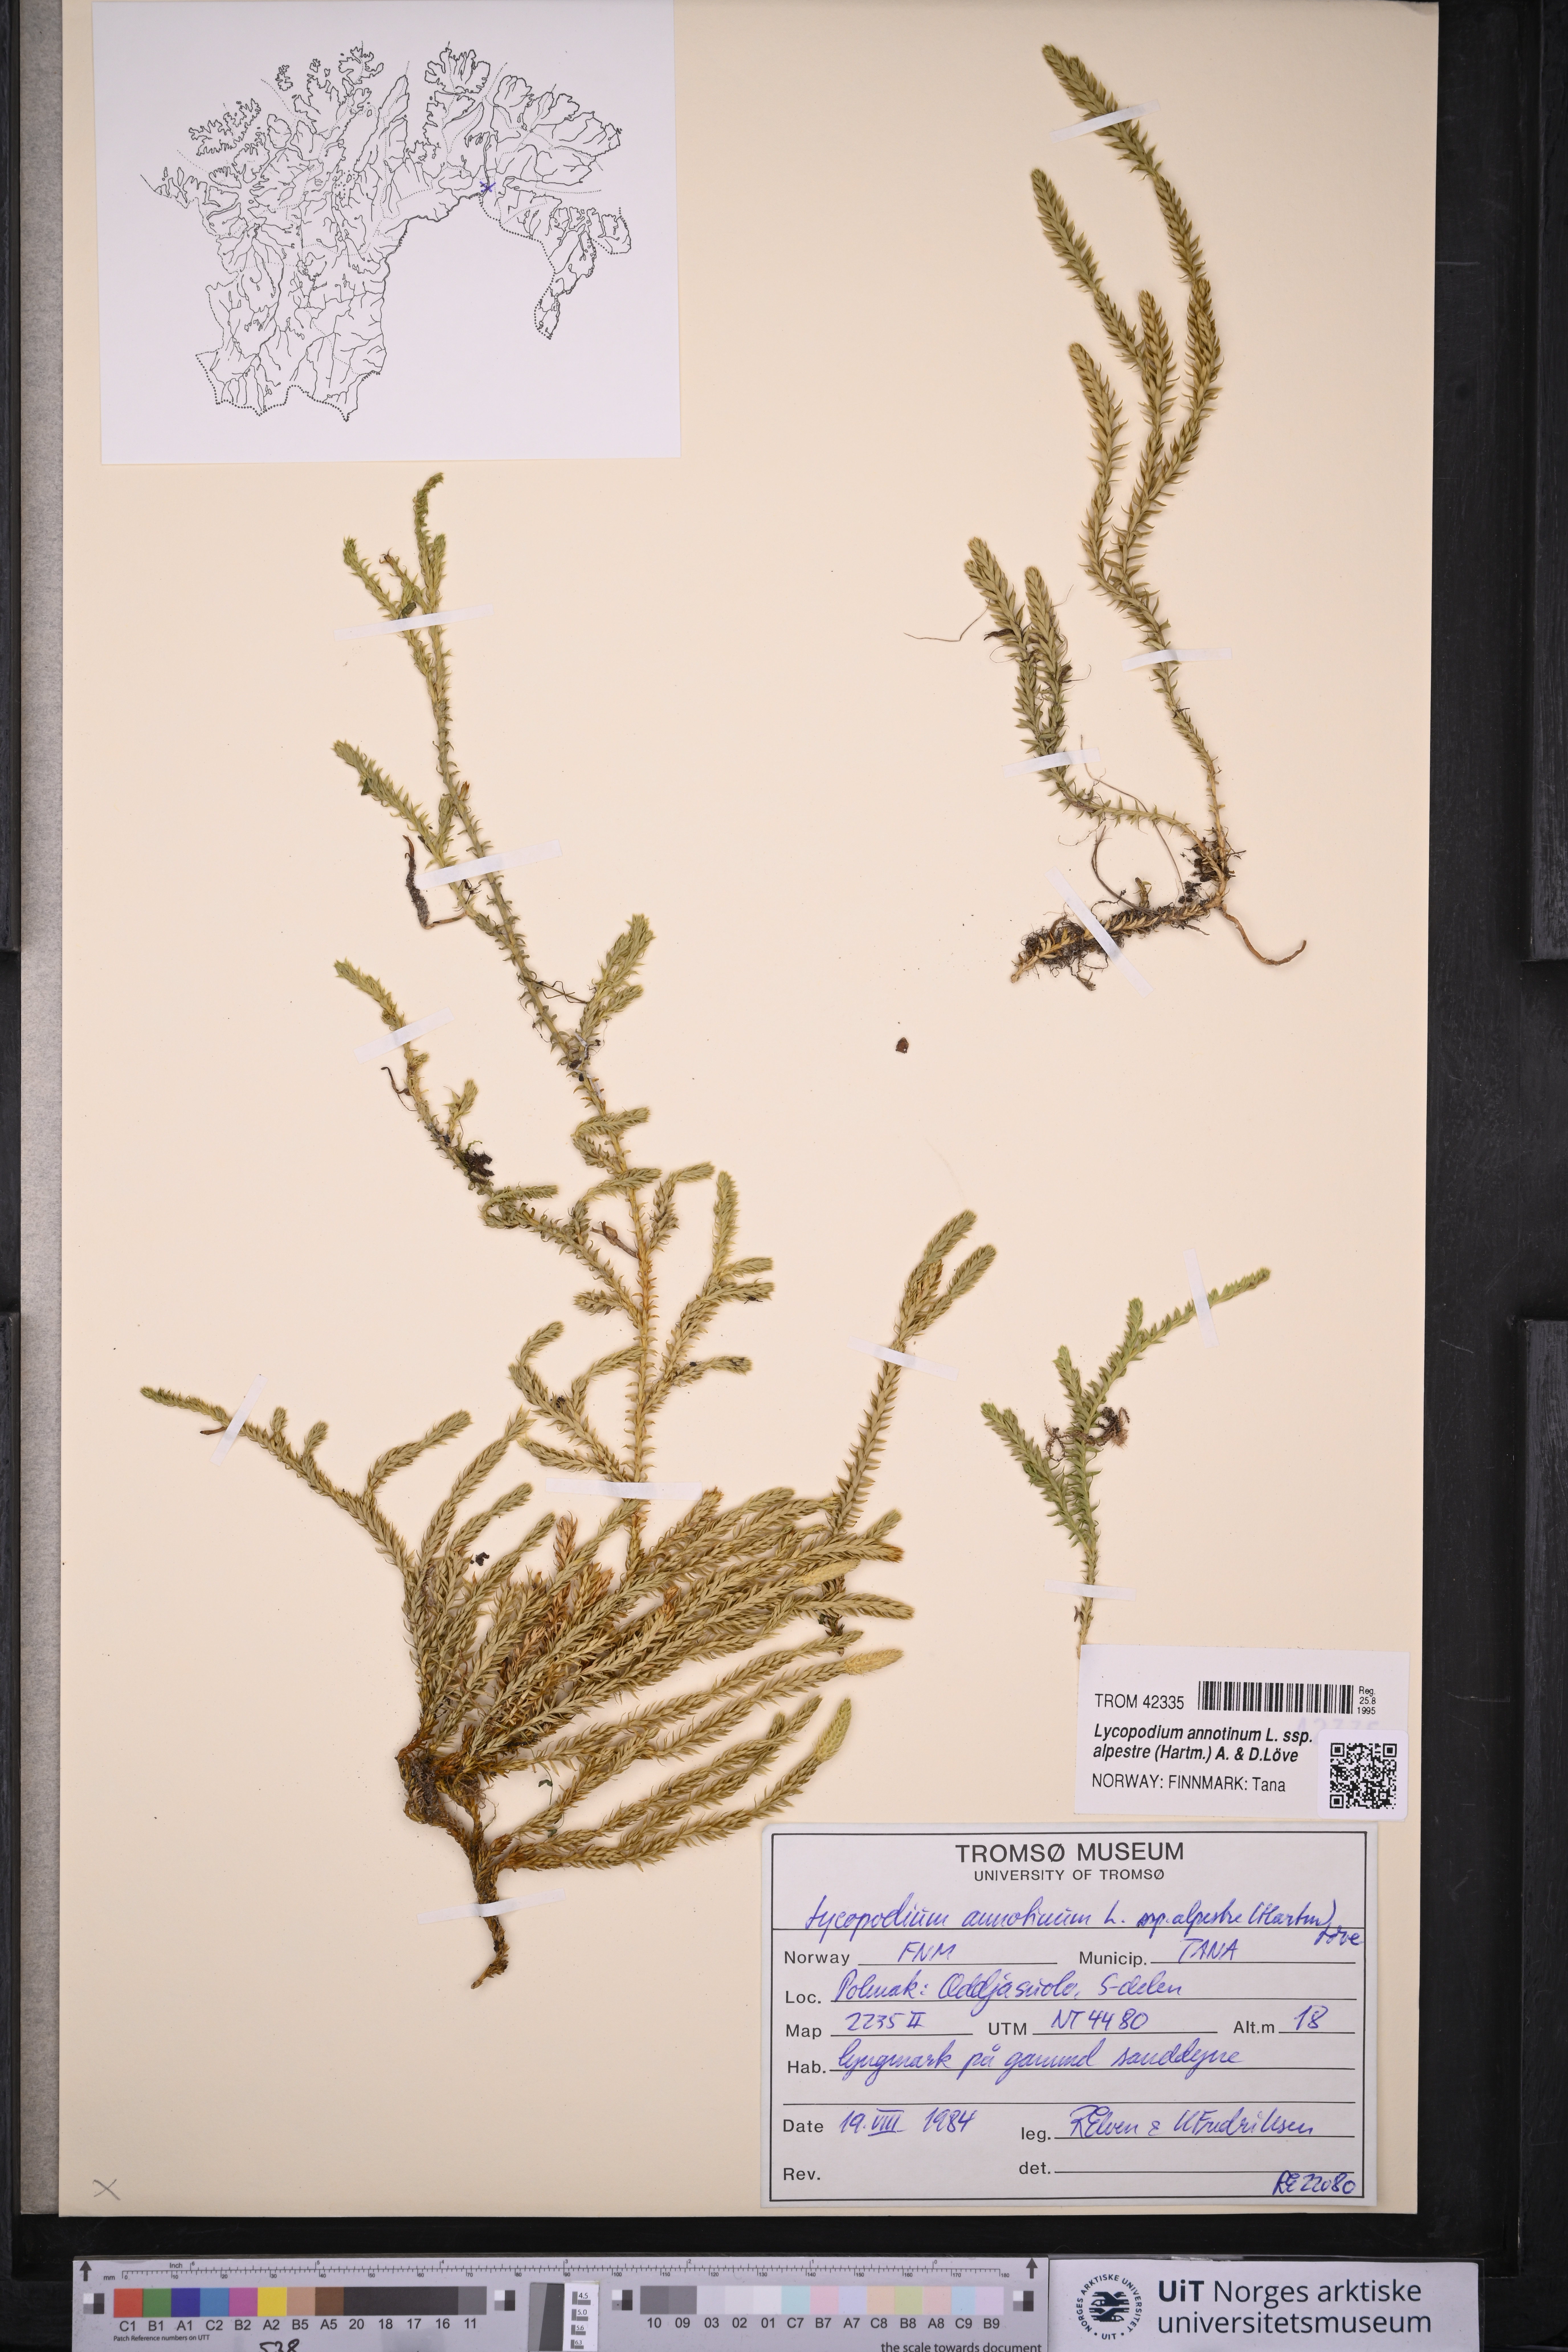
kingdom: Plantae
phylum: Tracheophyta
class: Lycopodiopsida
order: Lycopodiales
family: Lycopodiaceae
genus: Spinulum
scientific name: Spinulum annotinum
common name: Interrupted club-moss
